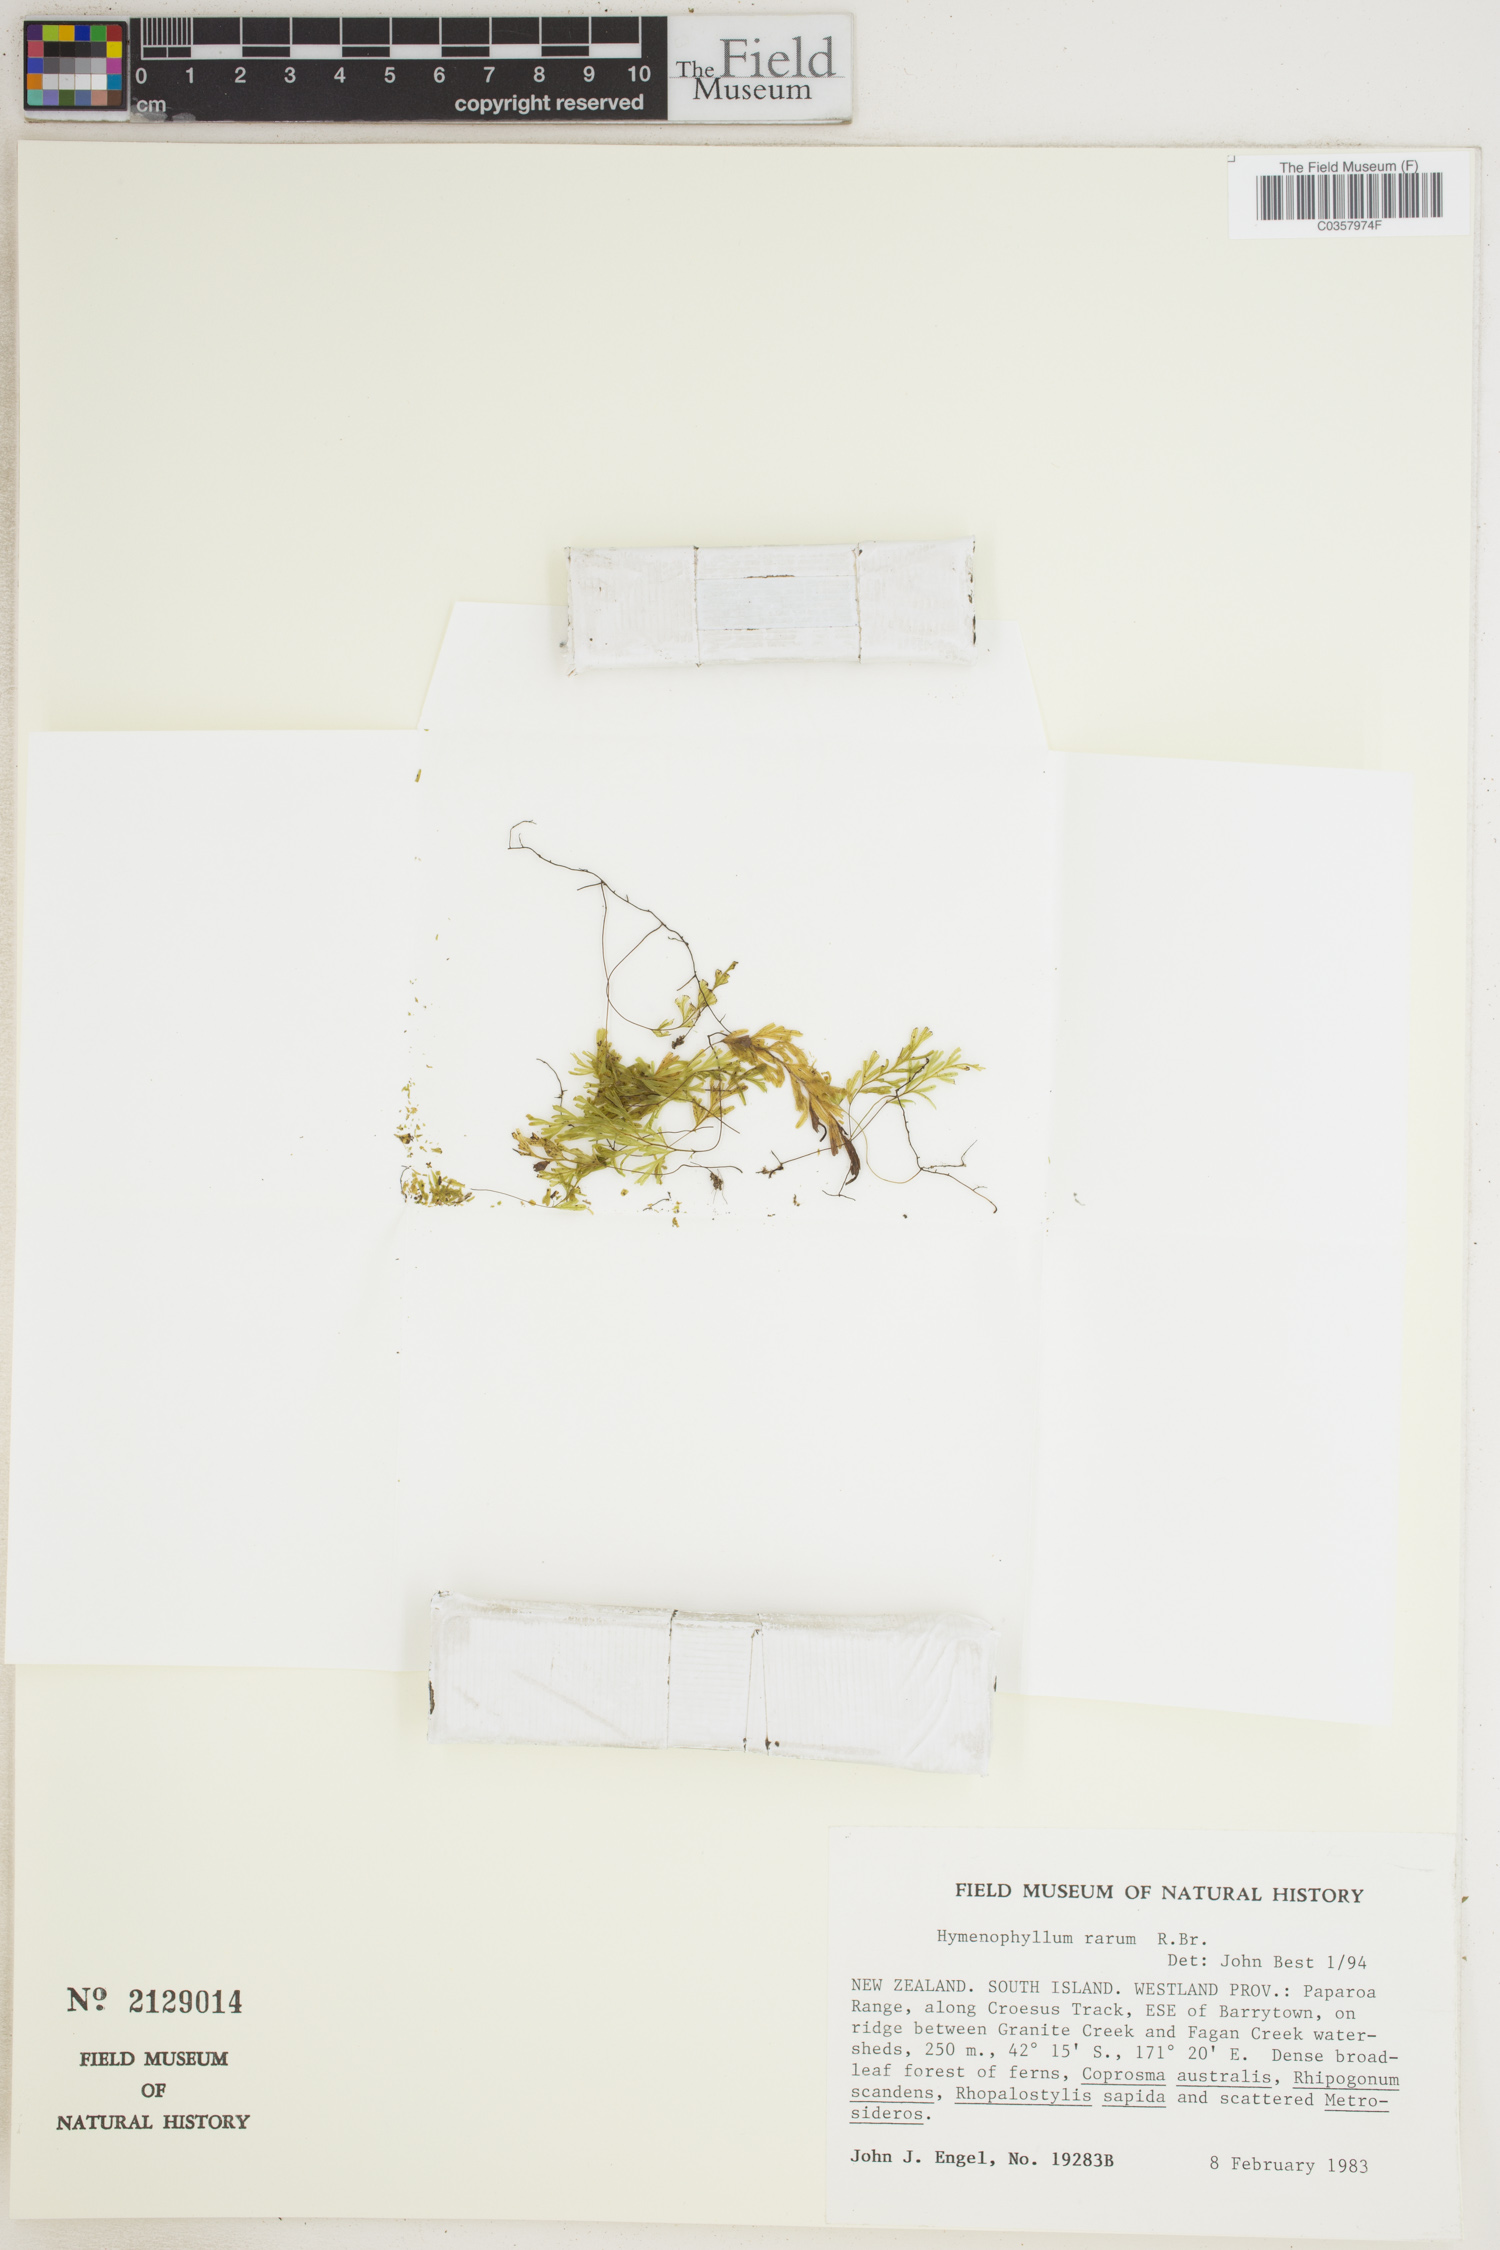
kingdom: Plantae
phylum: Tracheophyta
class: Polypodiopsida
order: Hymenophyllales
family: Hymenophyllaceae
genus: Hymenophyllum
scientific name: Hymenophyllum rarum
